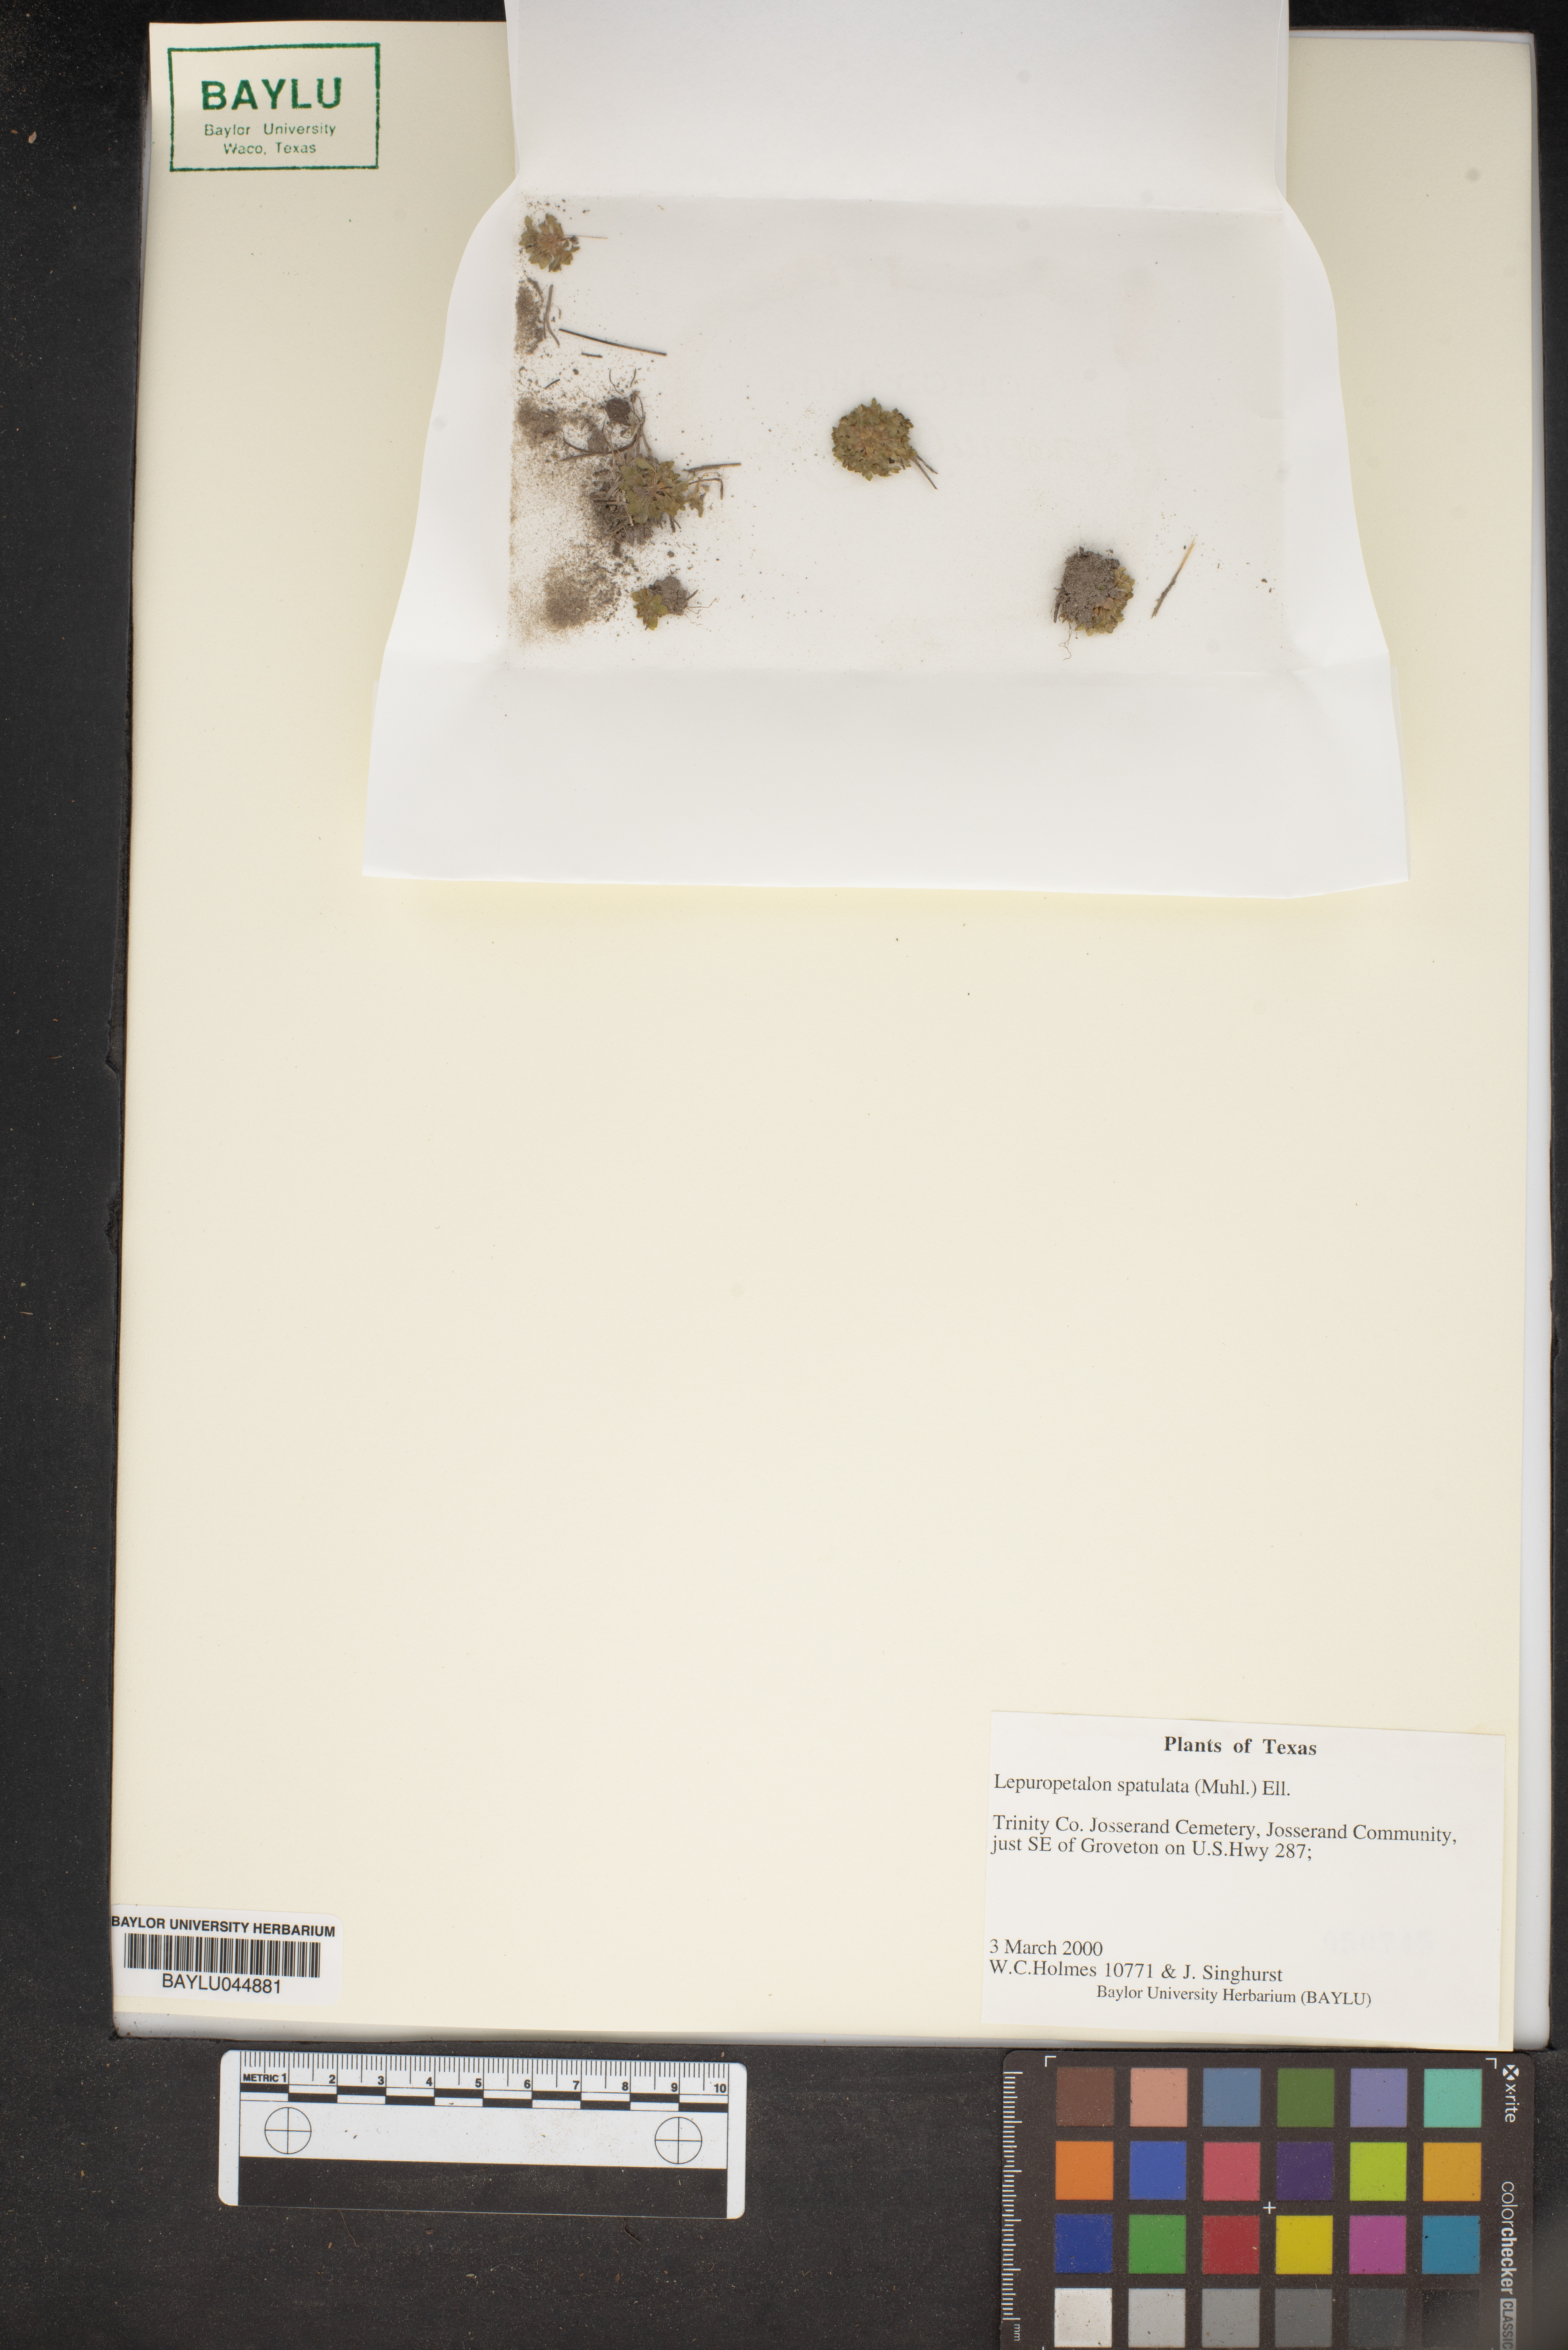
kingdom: Plantae
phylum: Tracheophyta
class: Magnoliopsida
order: Celastrales
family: Parnassiaceae
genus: Lepuropetalon
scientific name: Lepuropetalon spathulatum
